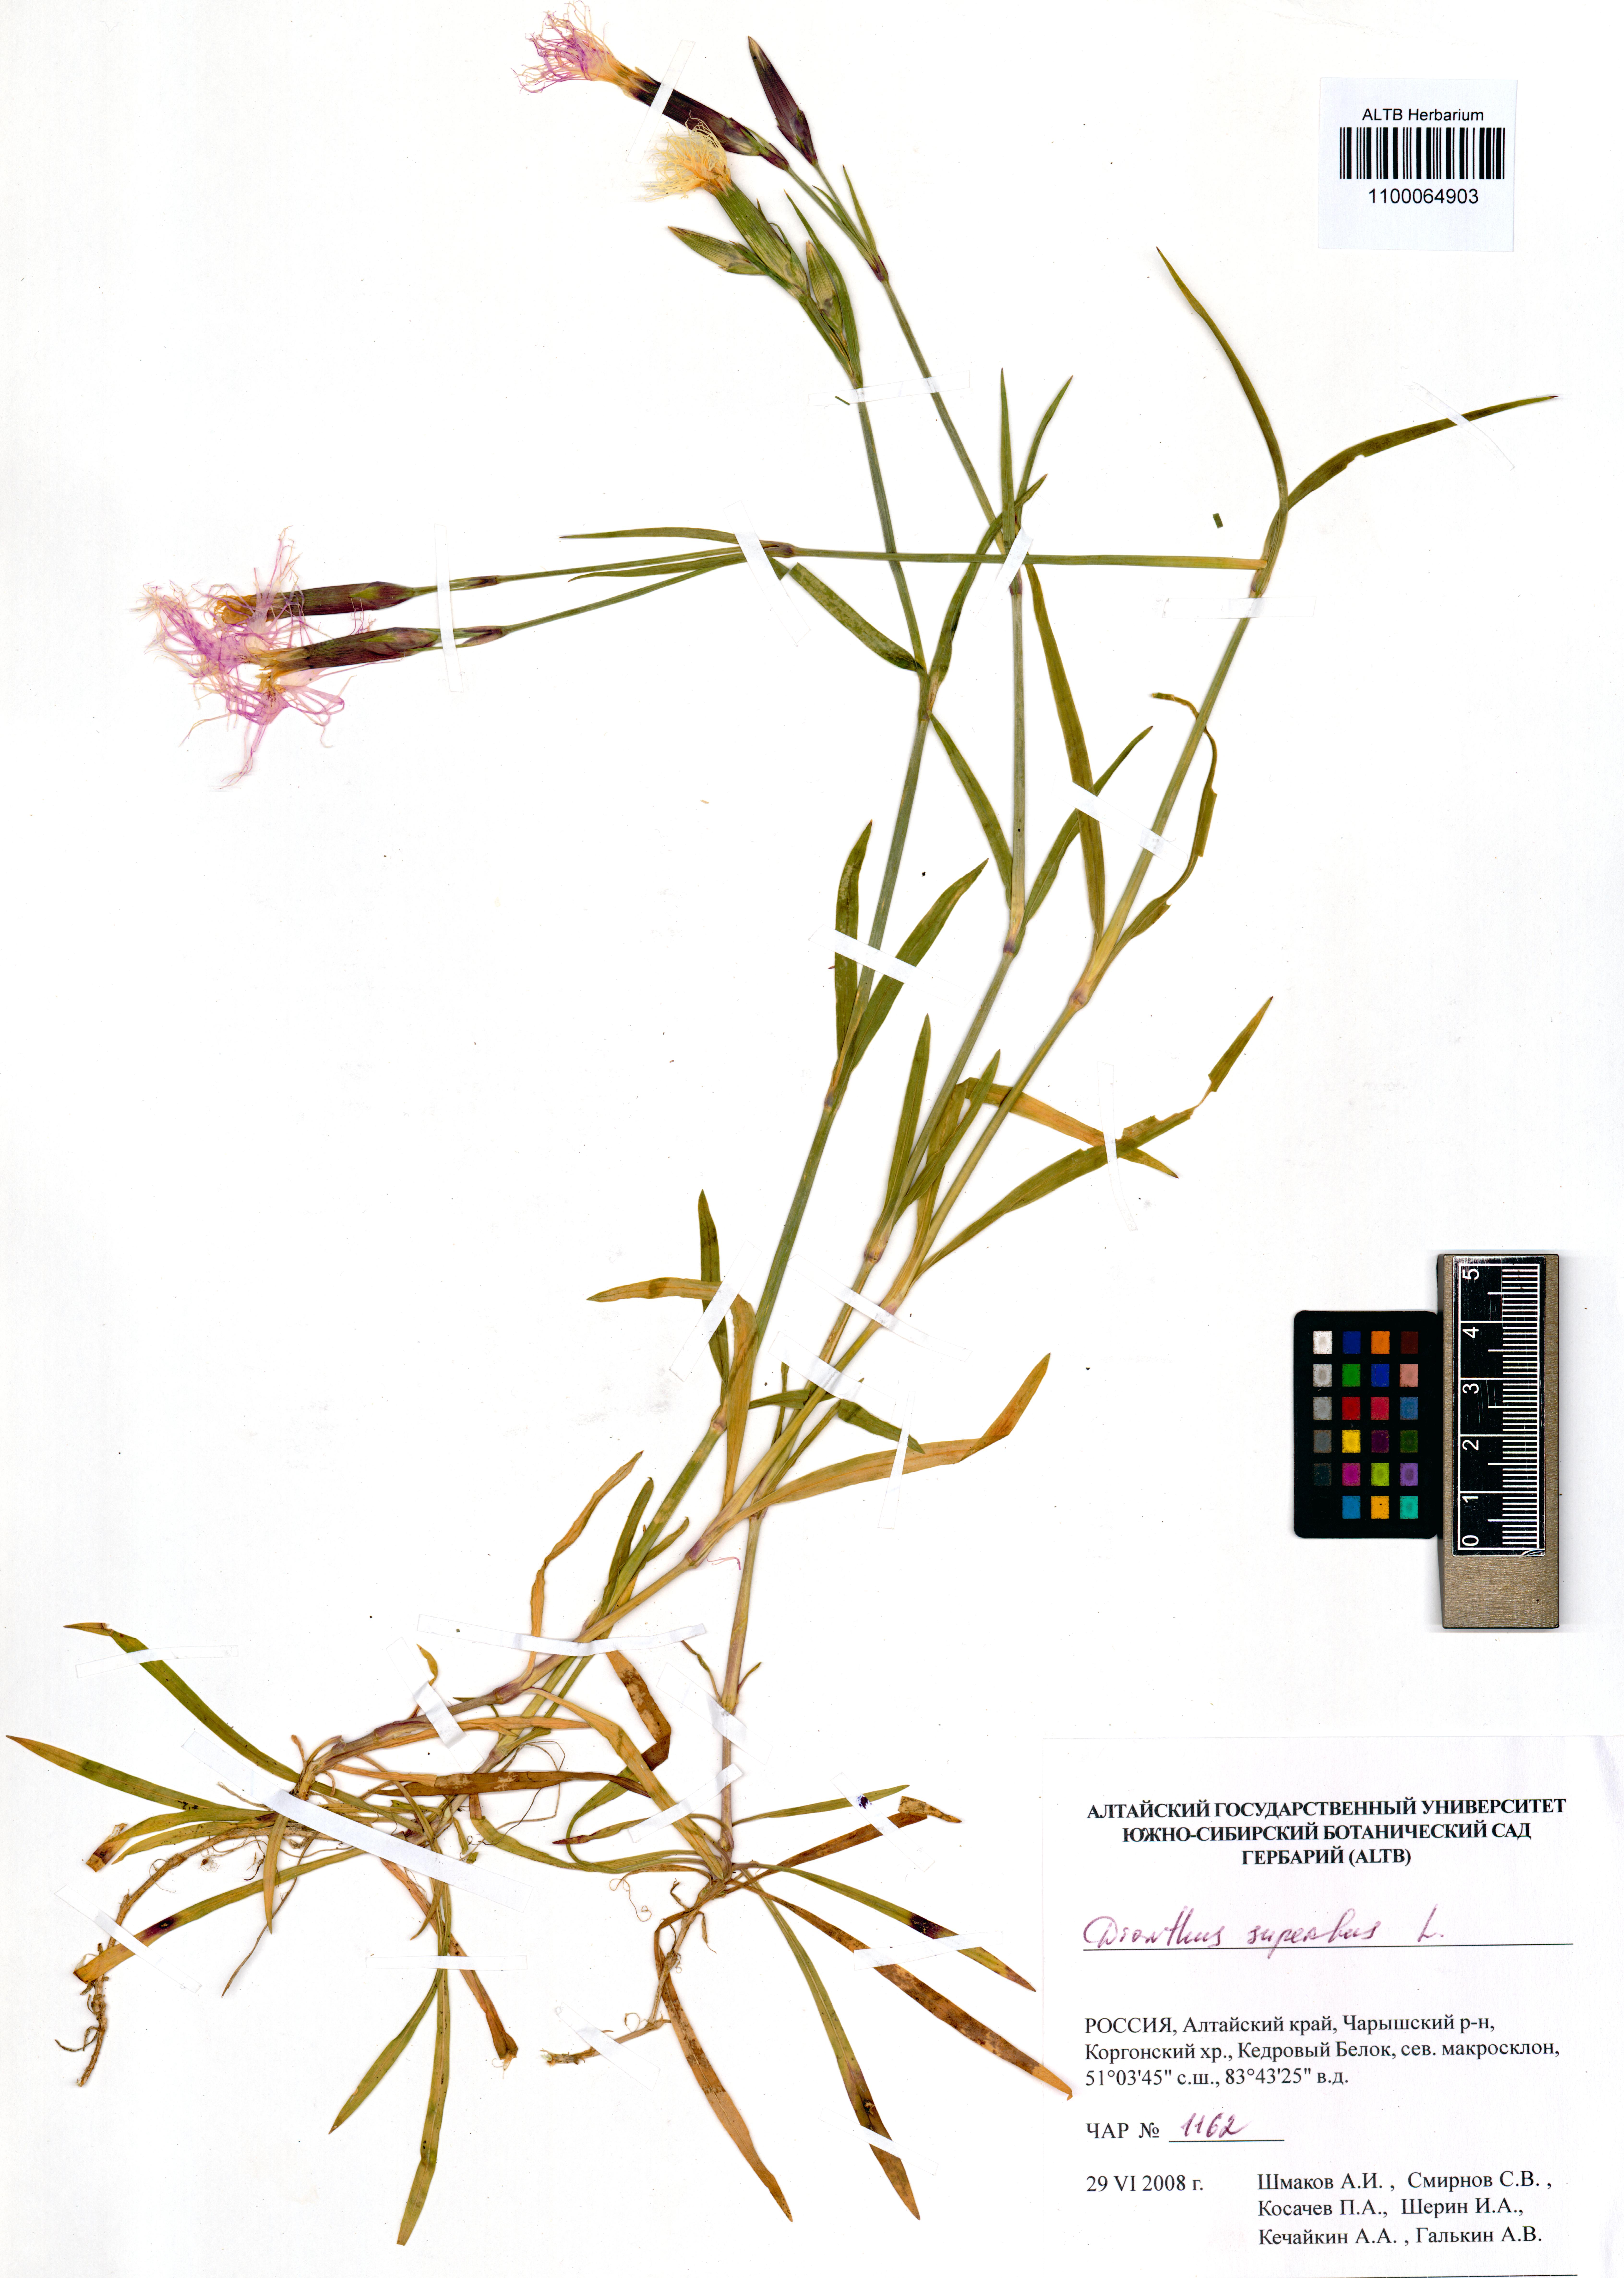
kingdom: Plantae
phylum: Tracheophyta
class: Magnoliopsida
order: Caryophyllales
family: Caryophyllaceae
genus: Dianthus
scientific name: Dianthus superbus
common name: Fringed pink
